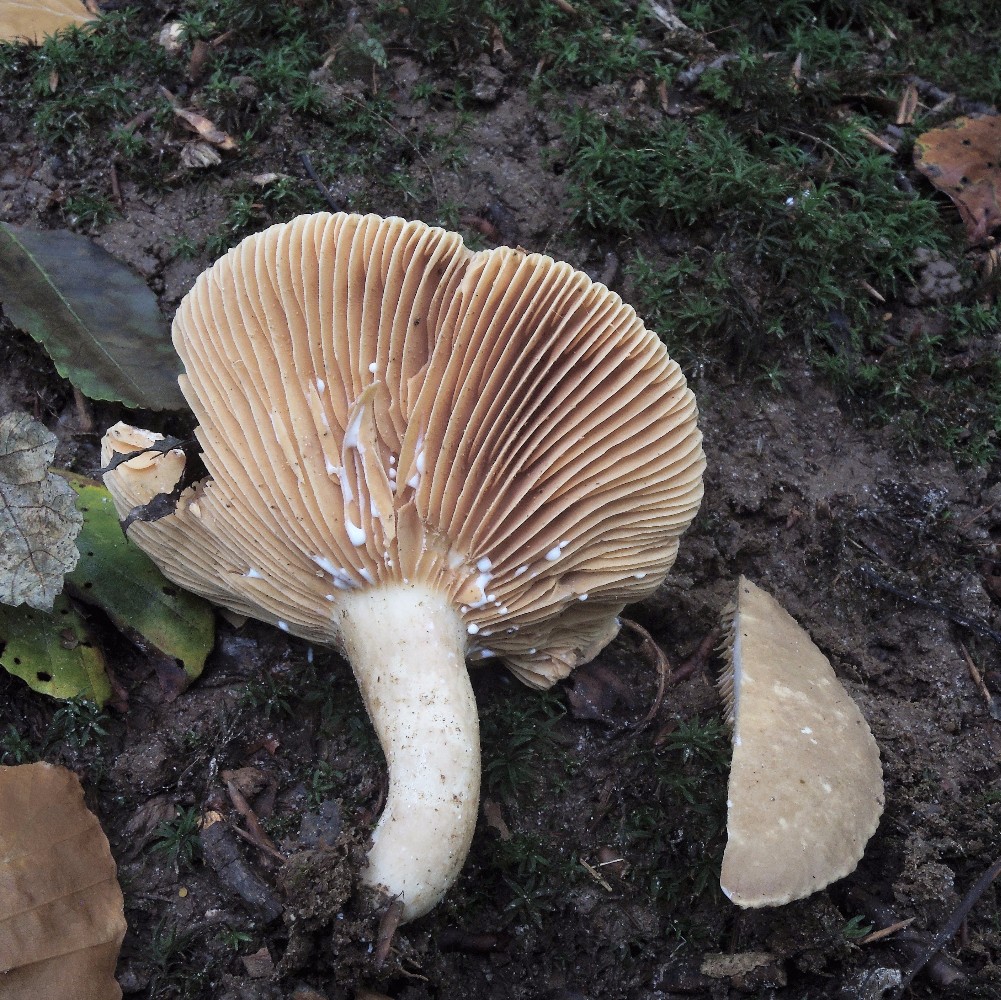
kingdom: Fungi
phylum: Basidiomycota
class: Agaricomycetes
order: Russulales
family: Russulaceae
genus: Lactarius
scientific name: Lactarius pterosporus
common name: vingesporet mælkehat
